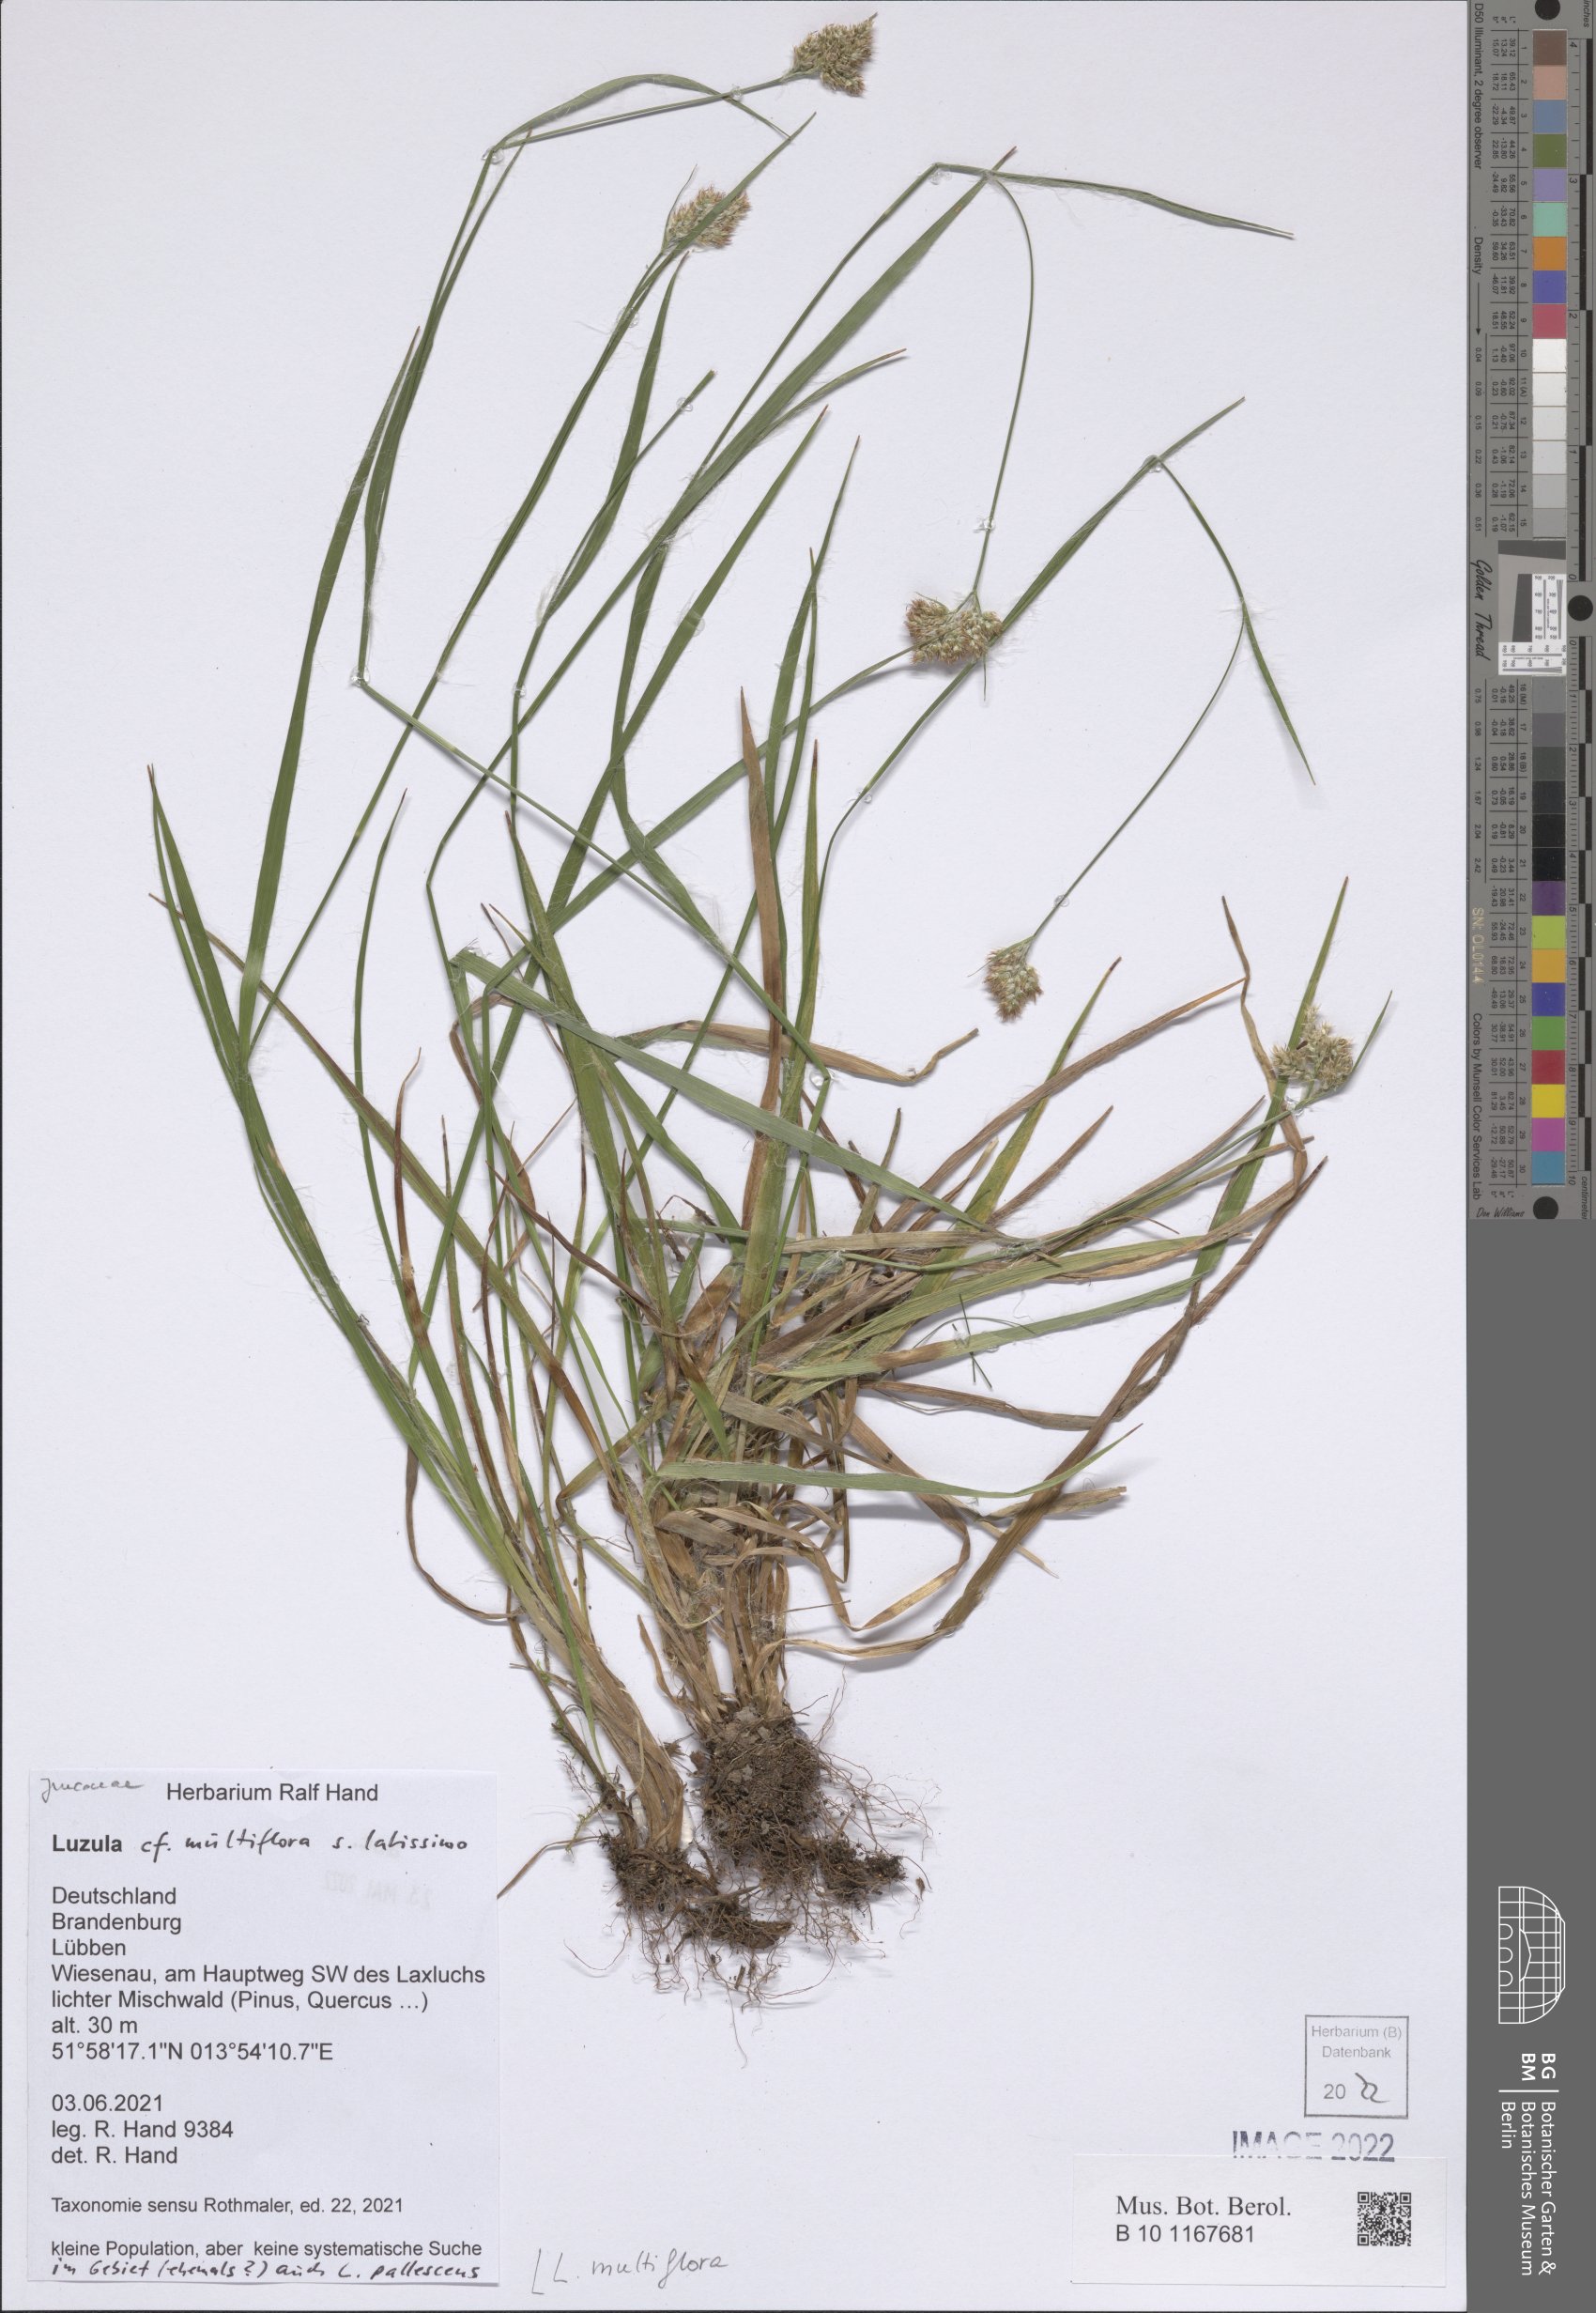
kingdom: Plantae
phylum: Tracheophyta
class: Liliopsida
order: Poales
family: Juncaceae
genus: Luzula
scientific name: Luzula multiflora
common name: Heath wood-rush
